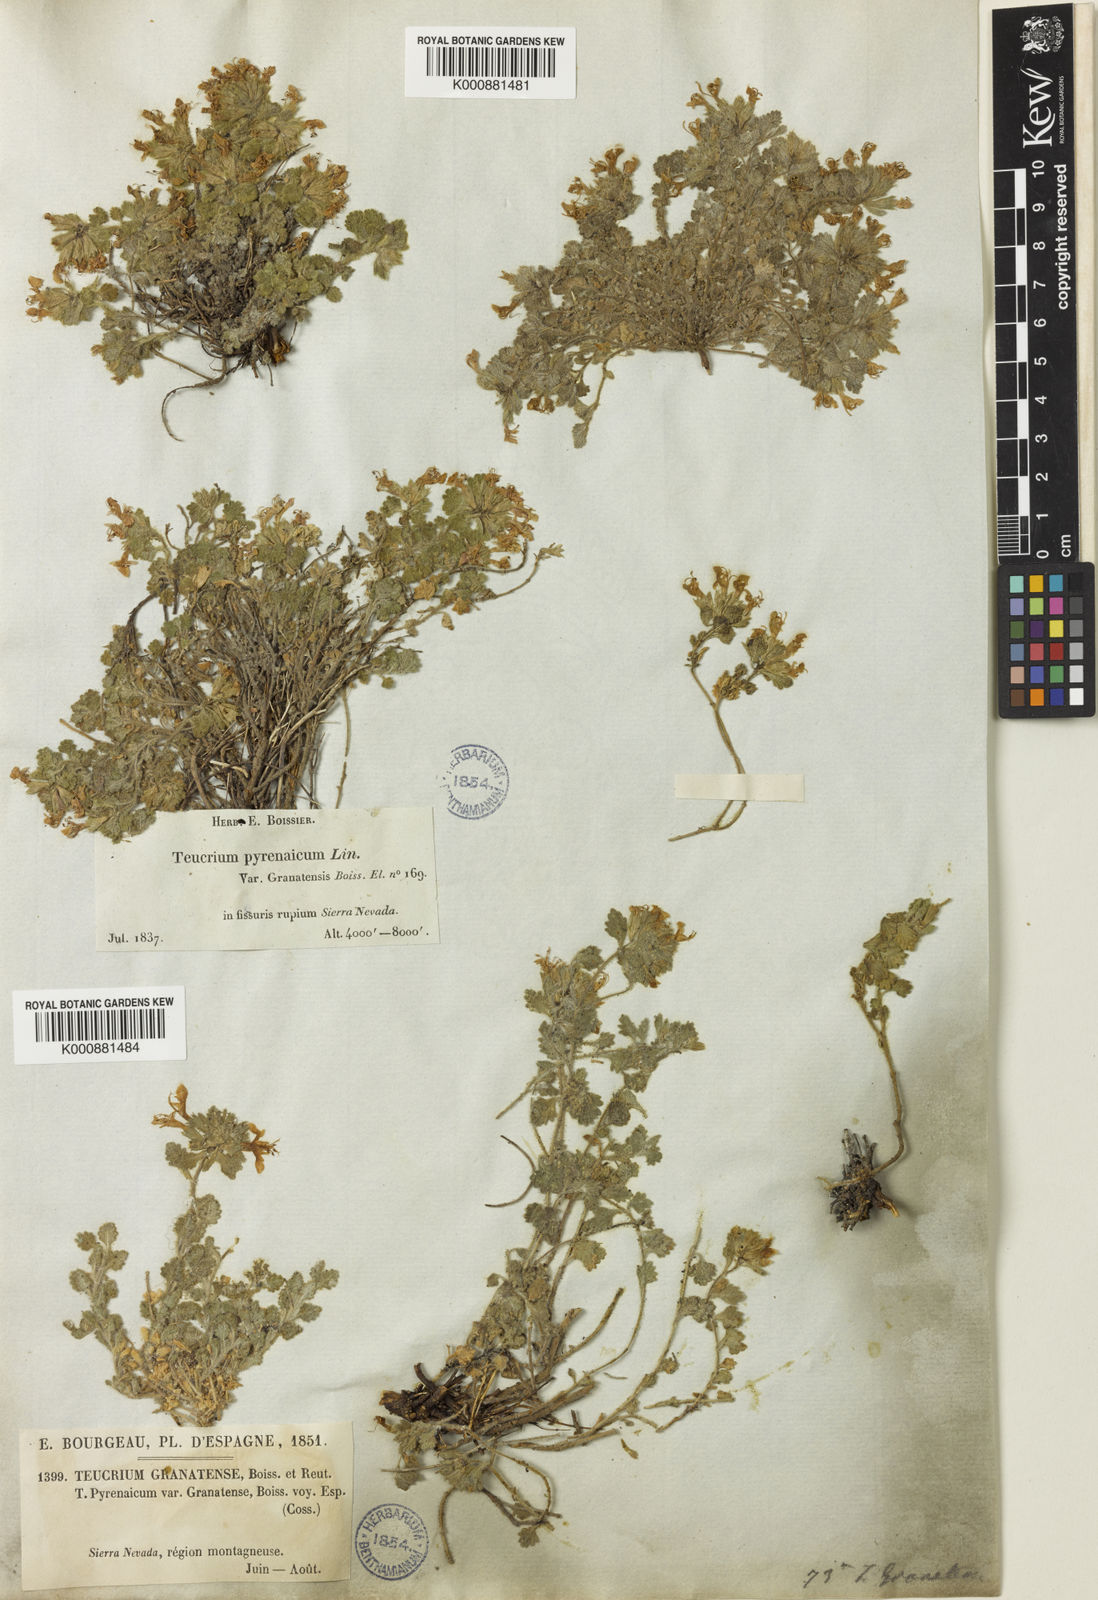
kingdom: Plantae
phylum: Tracheophyta
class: Magnoliopsida
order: Lamiales
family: Lamiaceae
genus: Teucrium
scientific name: Teucrium pyrenaicum
